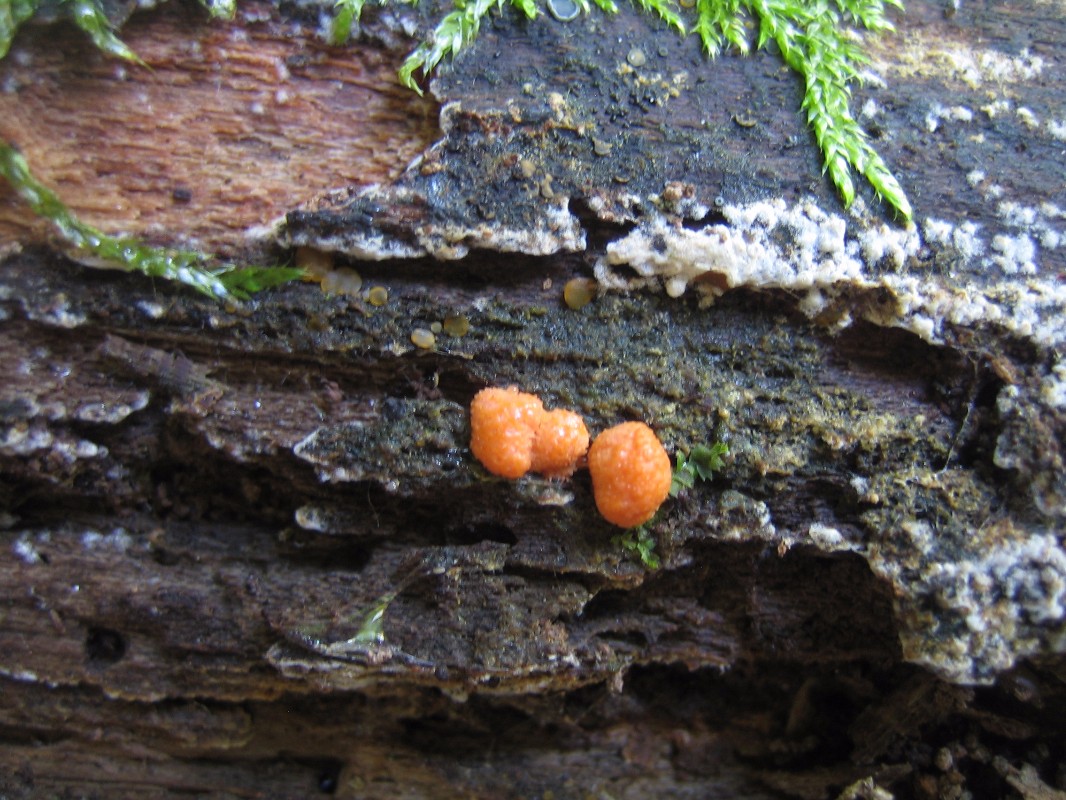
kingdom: Protozoa
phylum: Mycetozoa
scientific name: Mycetozoa
